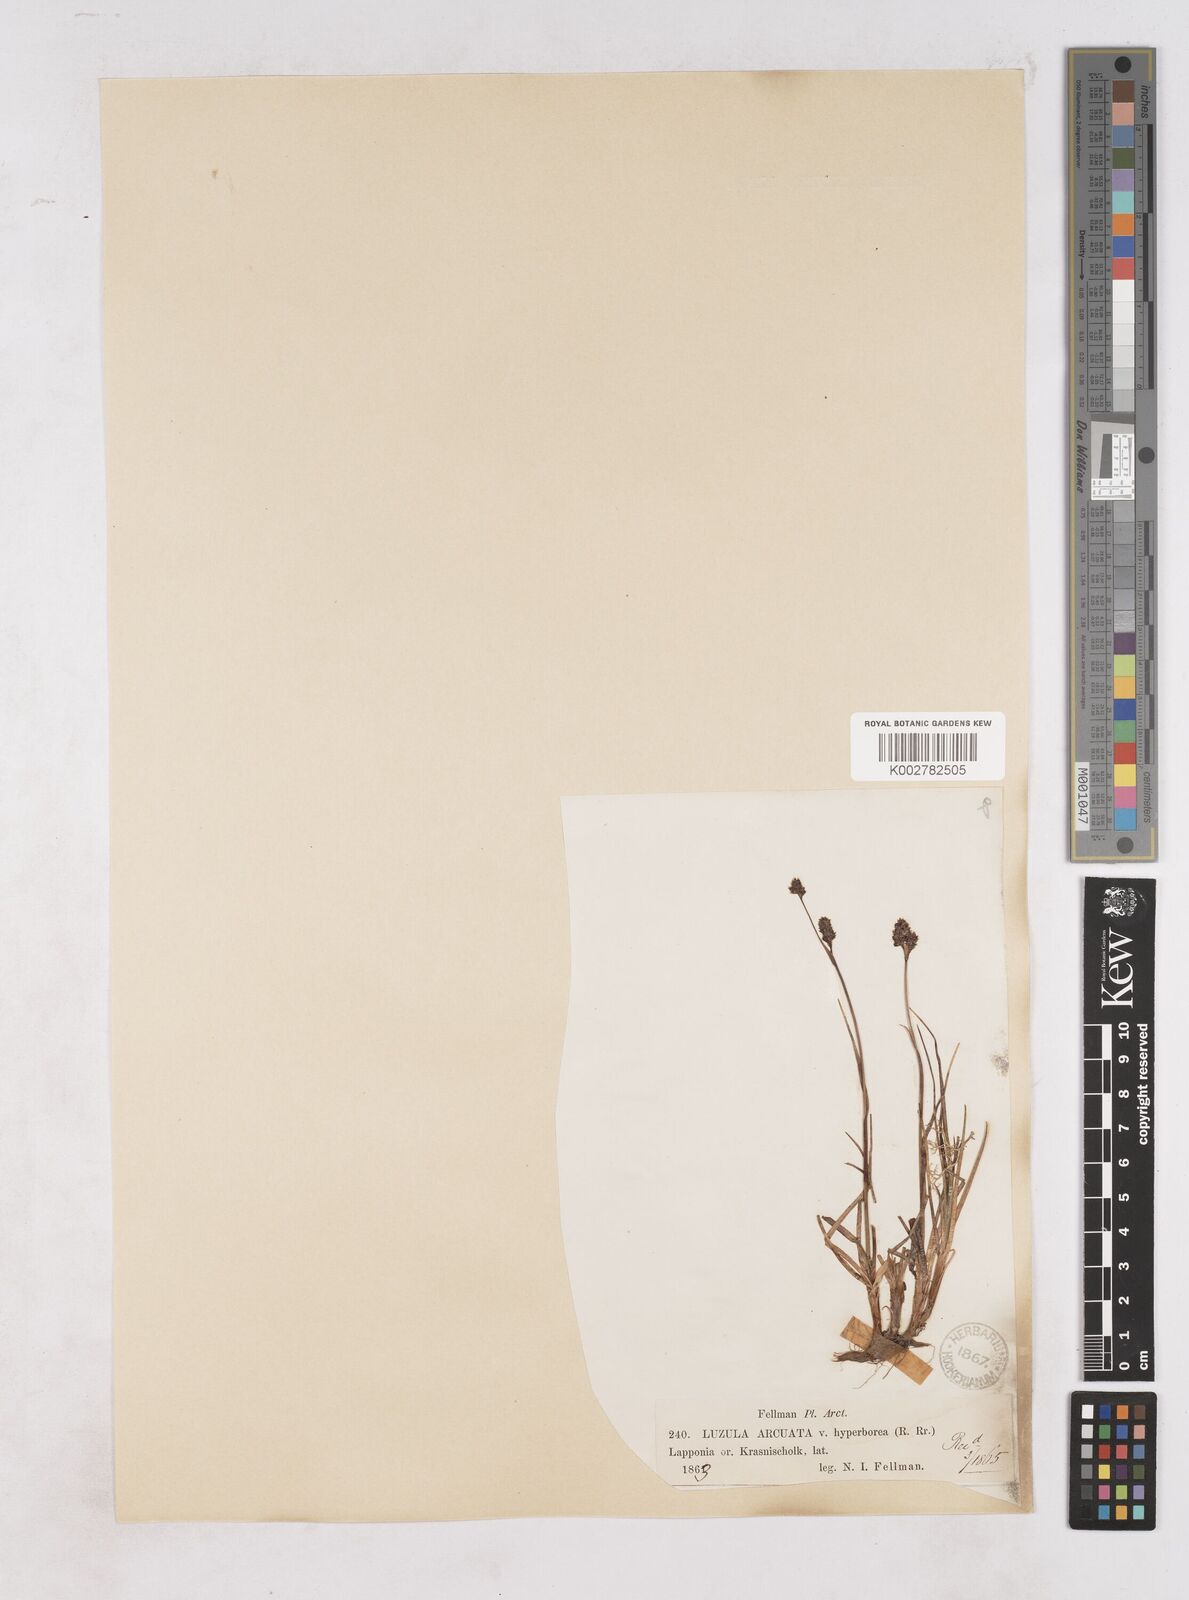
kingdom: Plantae
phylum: Tracheophyta
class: Liliopsida
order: Poales
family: Juncaceae
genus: Luzula
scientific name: Luzula arcuata
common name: Curved wood-rush
